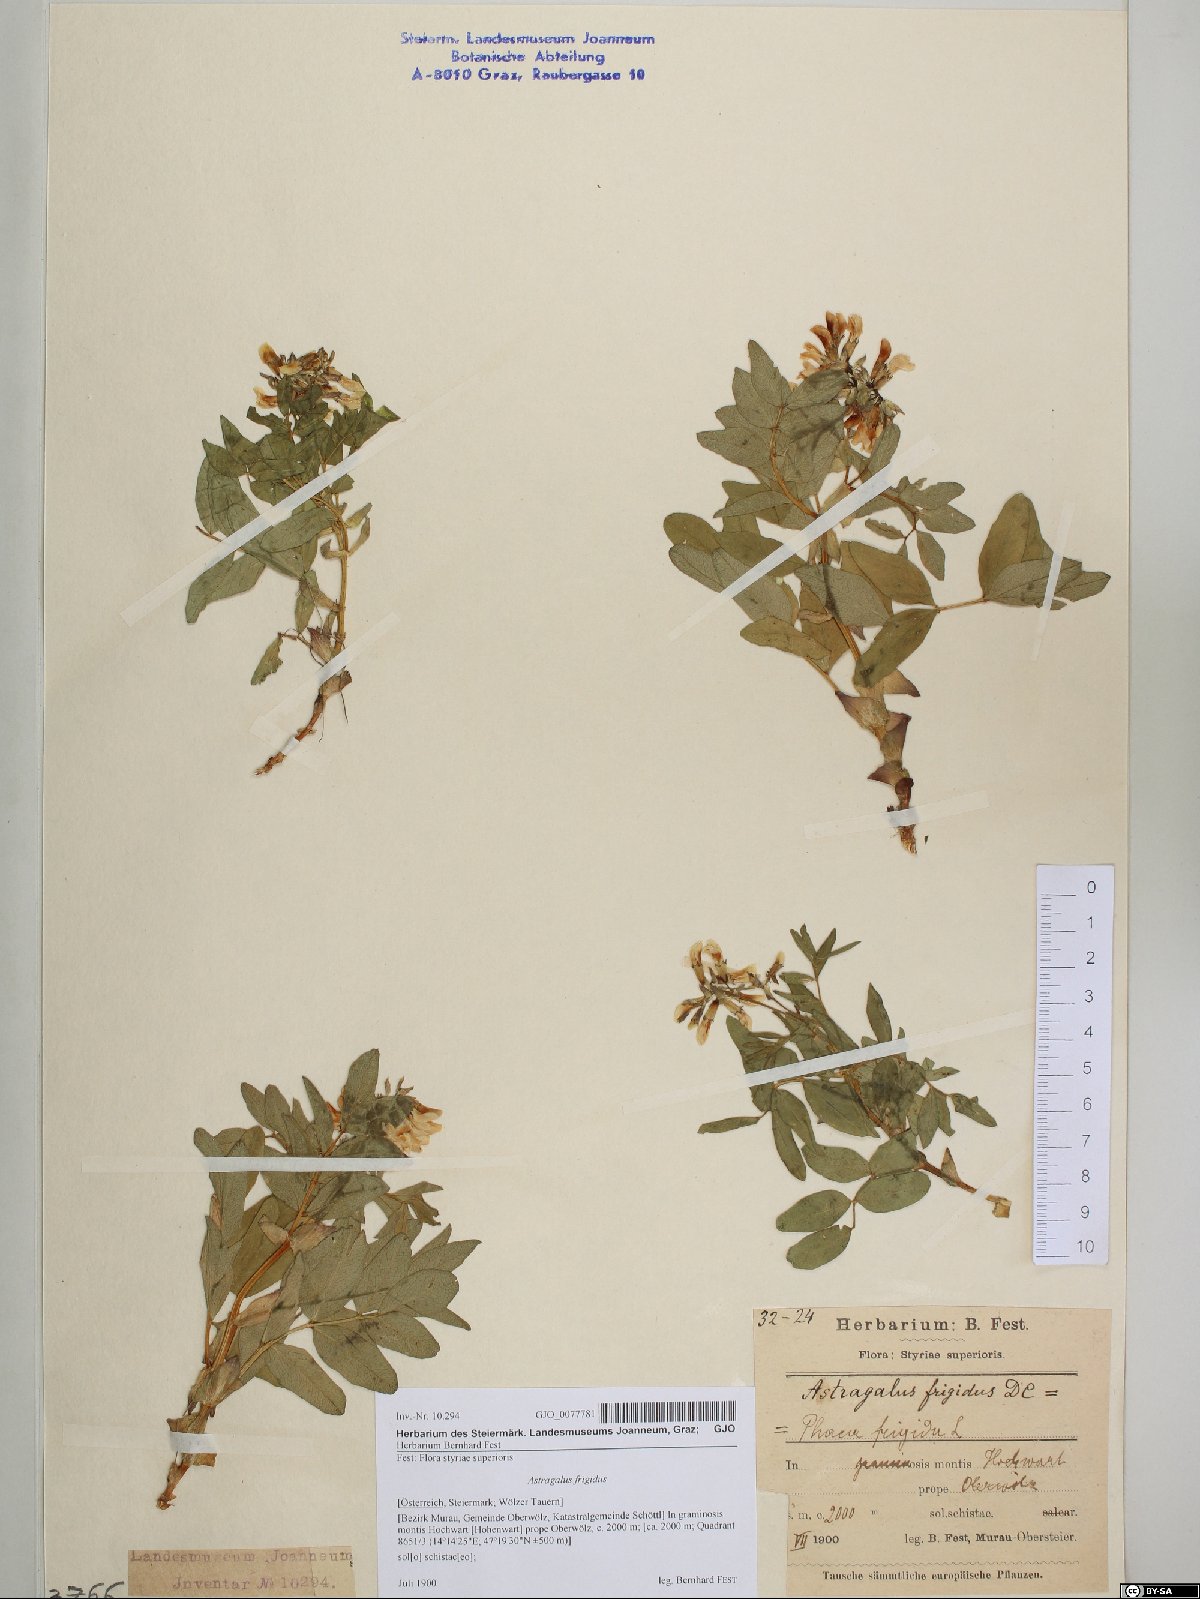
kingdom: Plantae
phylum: Tracheophyta
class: Magnoliopsida
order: Fabales
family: Fabaceae
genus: Astragalus
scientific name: Astragalus frigidus
